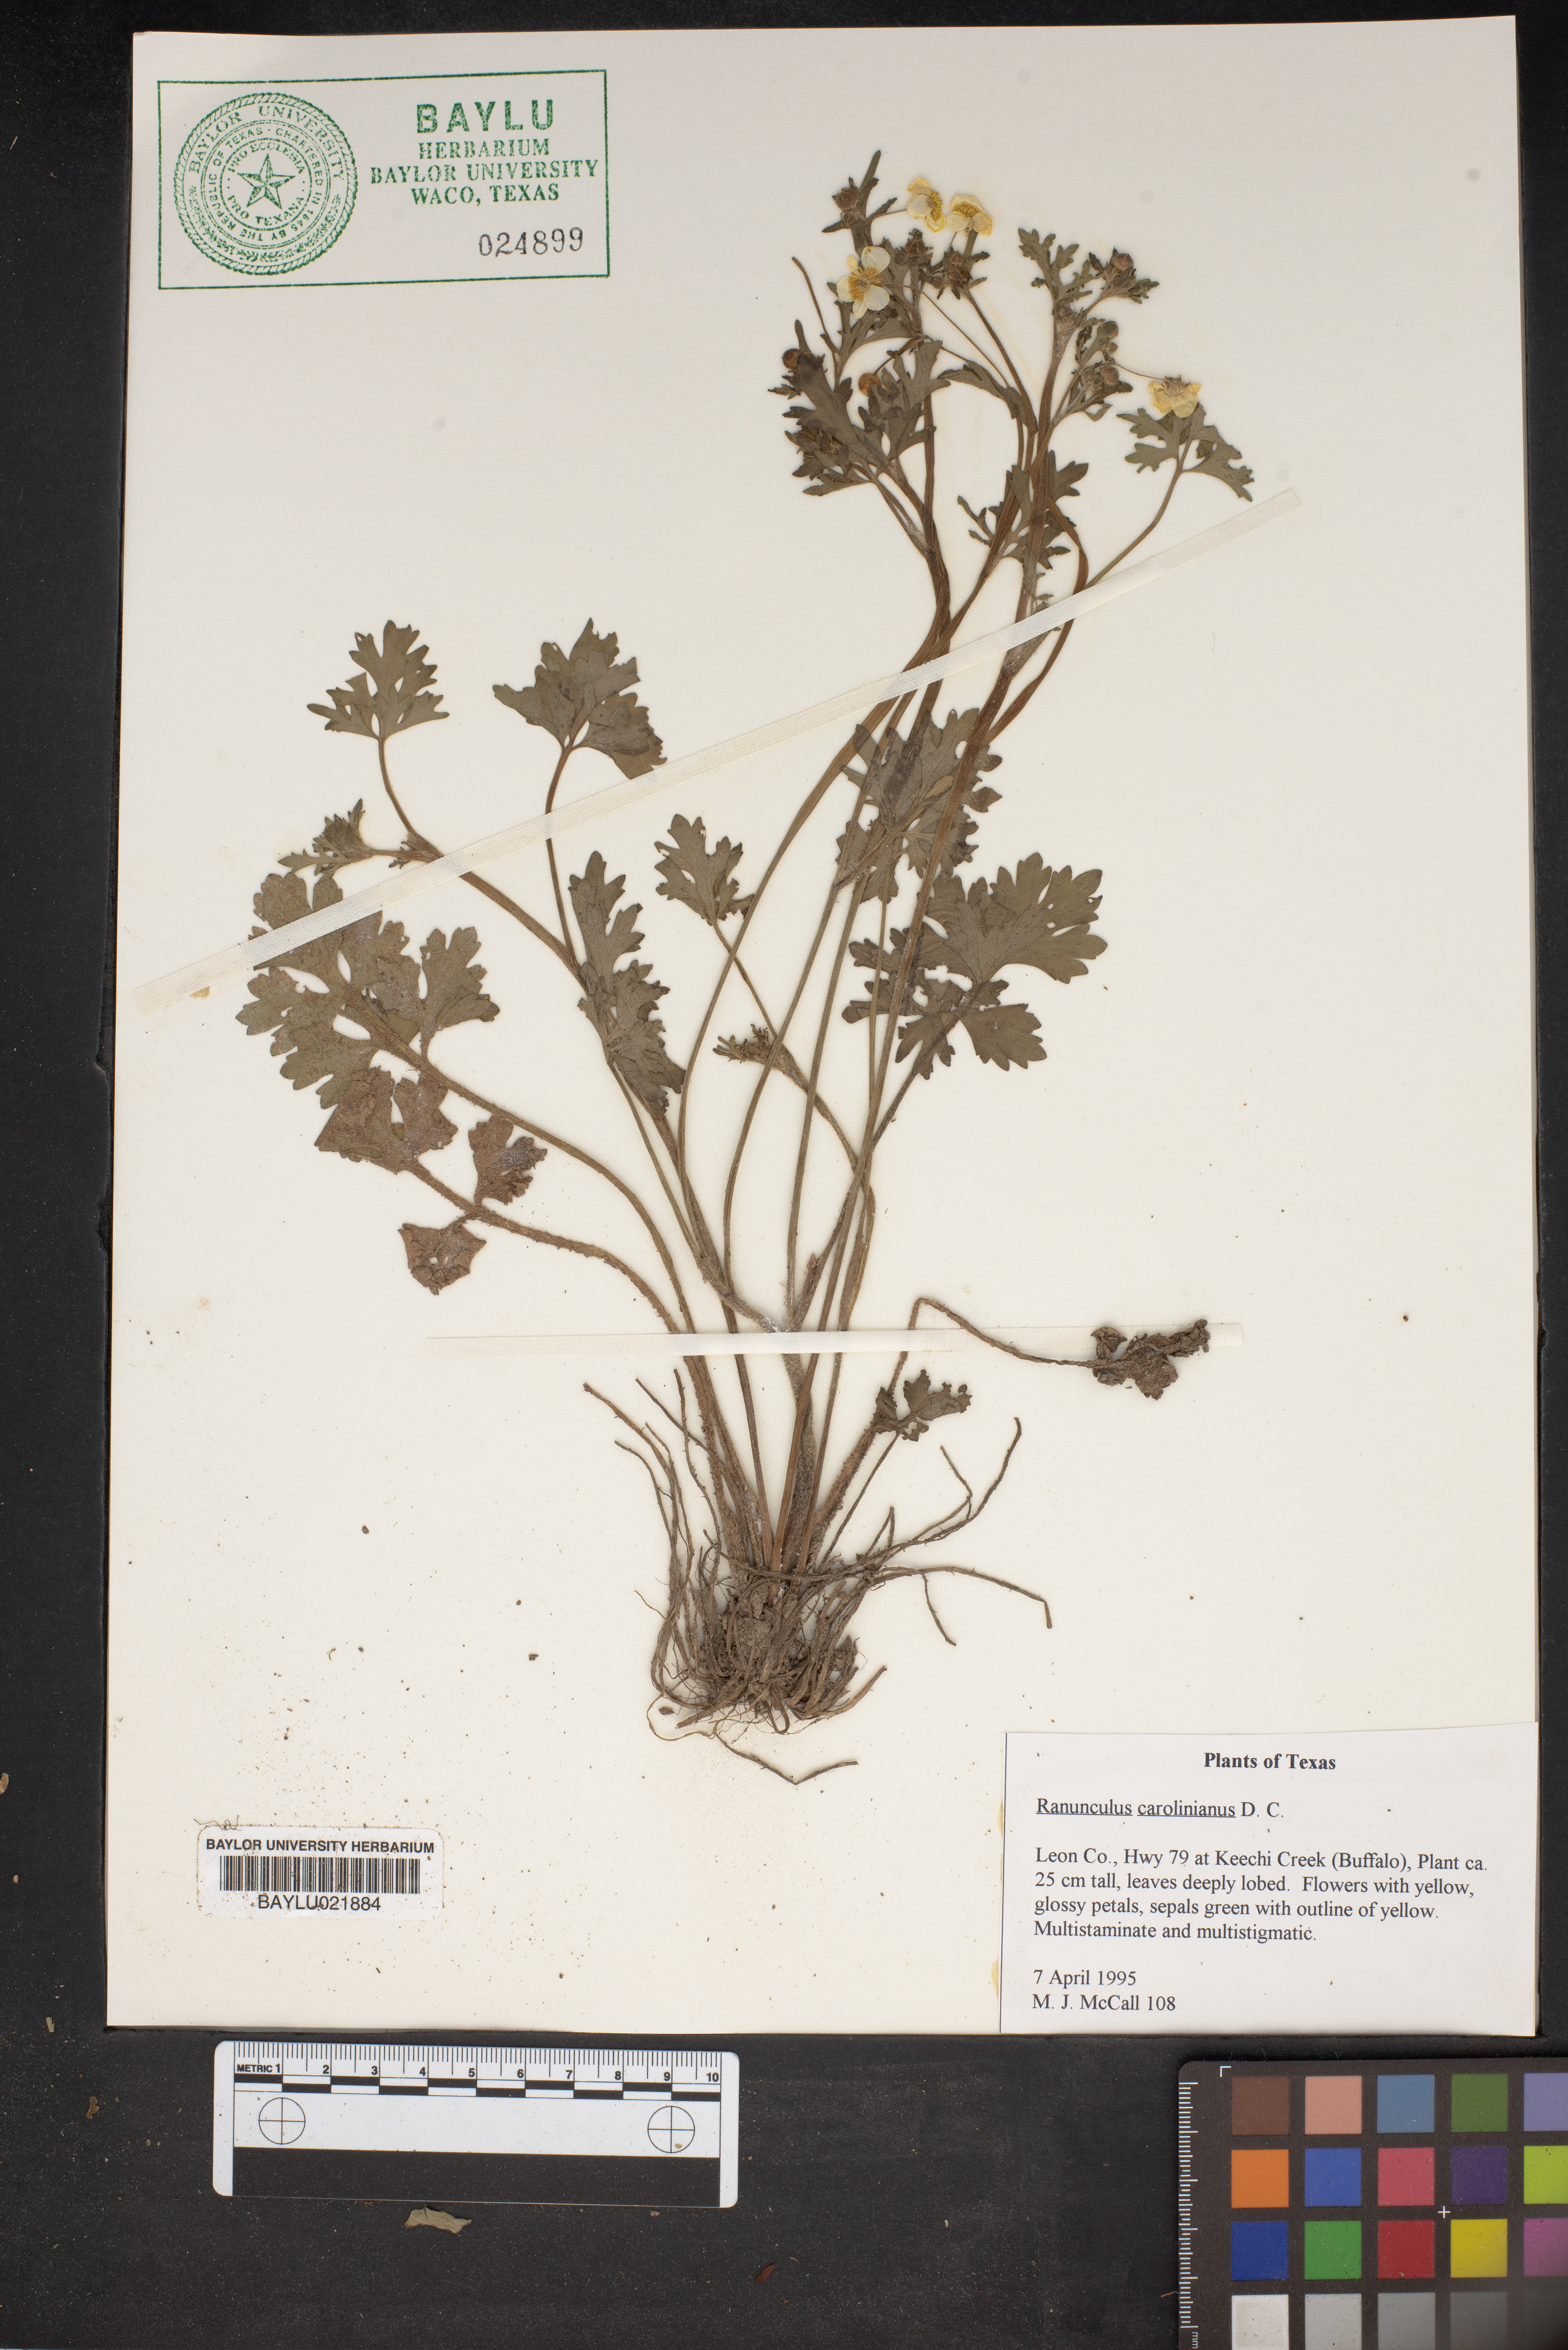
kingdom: Plantae
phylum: Tracheophyta
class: Magnoliopsida
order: Ranunculales
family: Ranunculaceae
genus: Ranunculus
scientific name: Ranunculus hispidus
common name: Bristly buttercup
